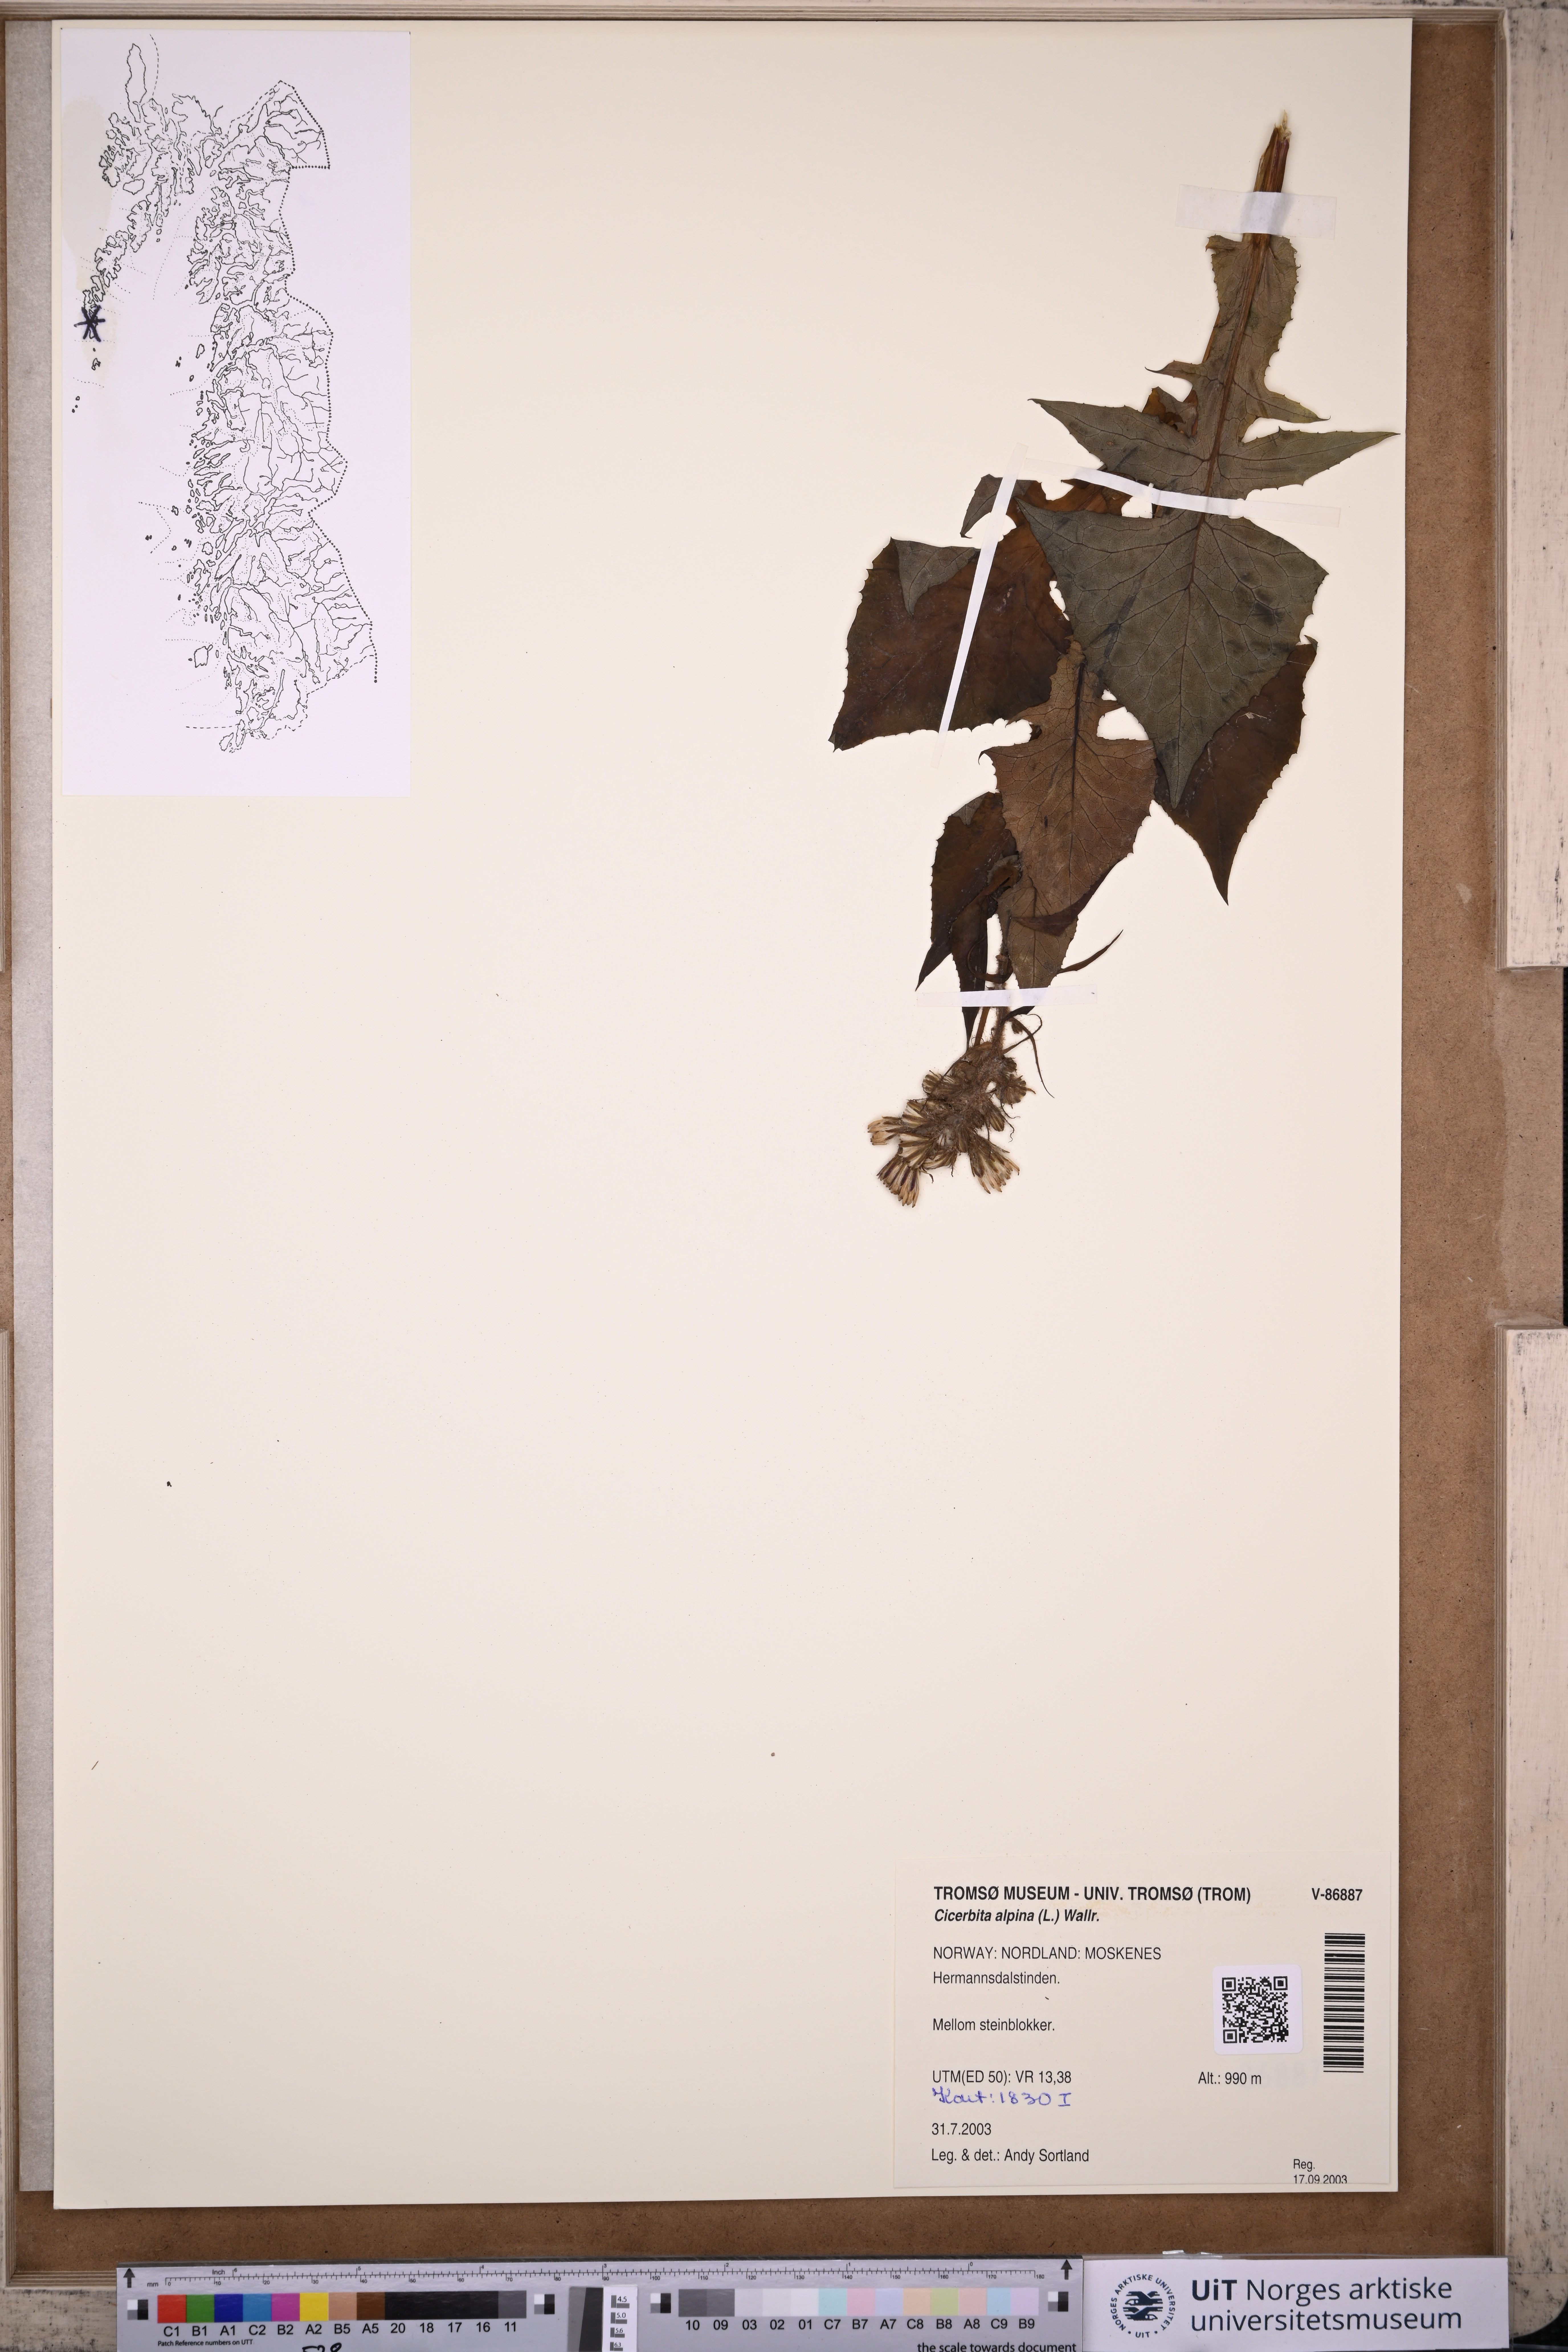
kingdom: Plantae
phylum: Tracheophyta
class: Magnoliopsida
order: Asterales
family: Asteraceae
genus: Cicerbita
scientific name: Cicerbita alpina
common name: Alpine blue-sow-thistle
